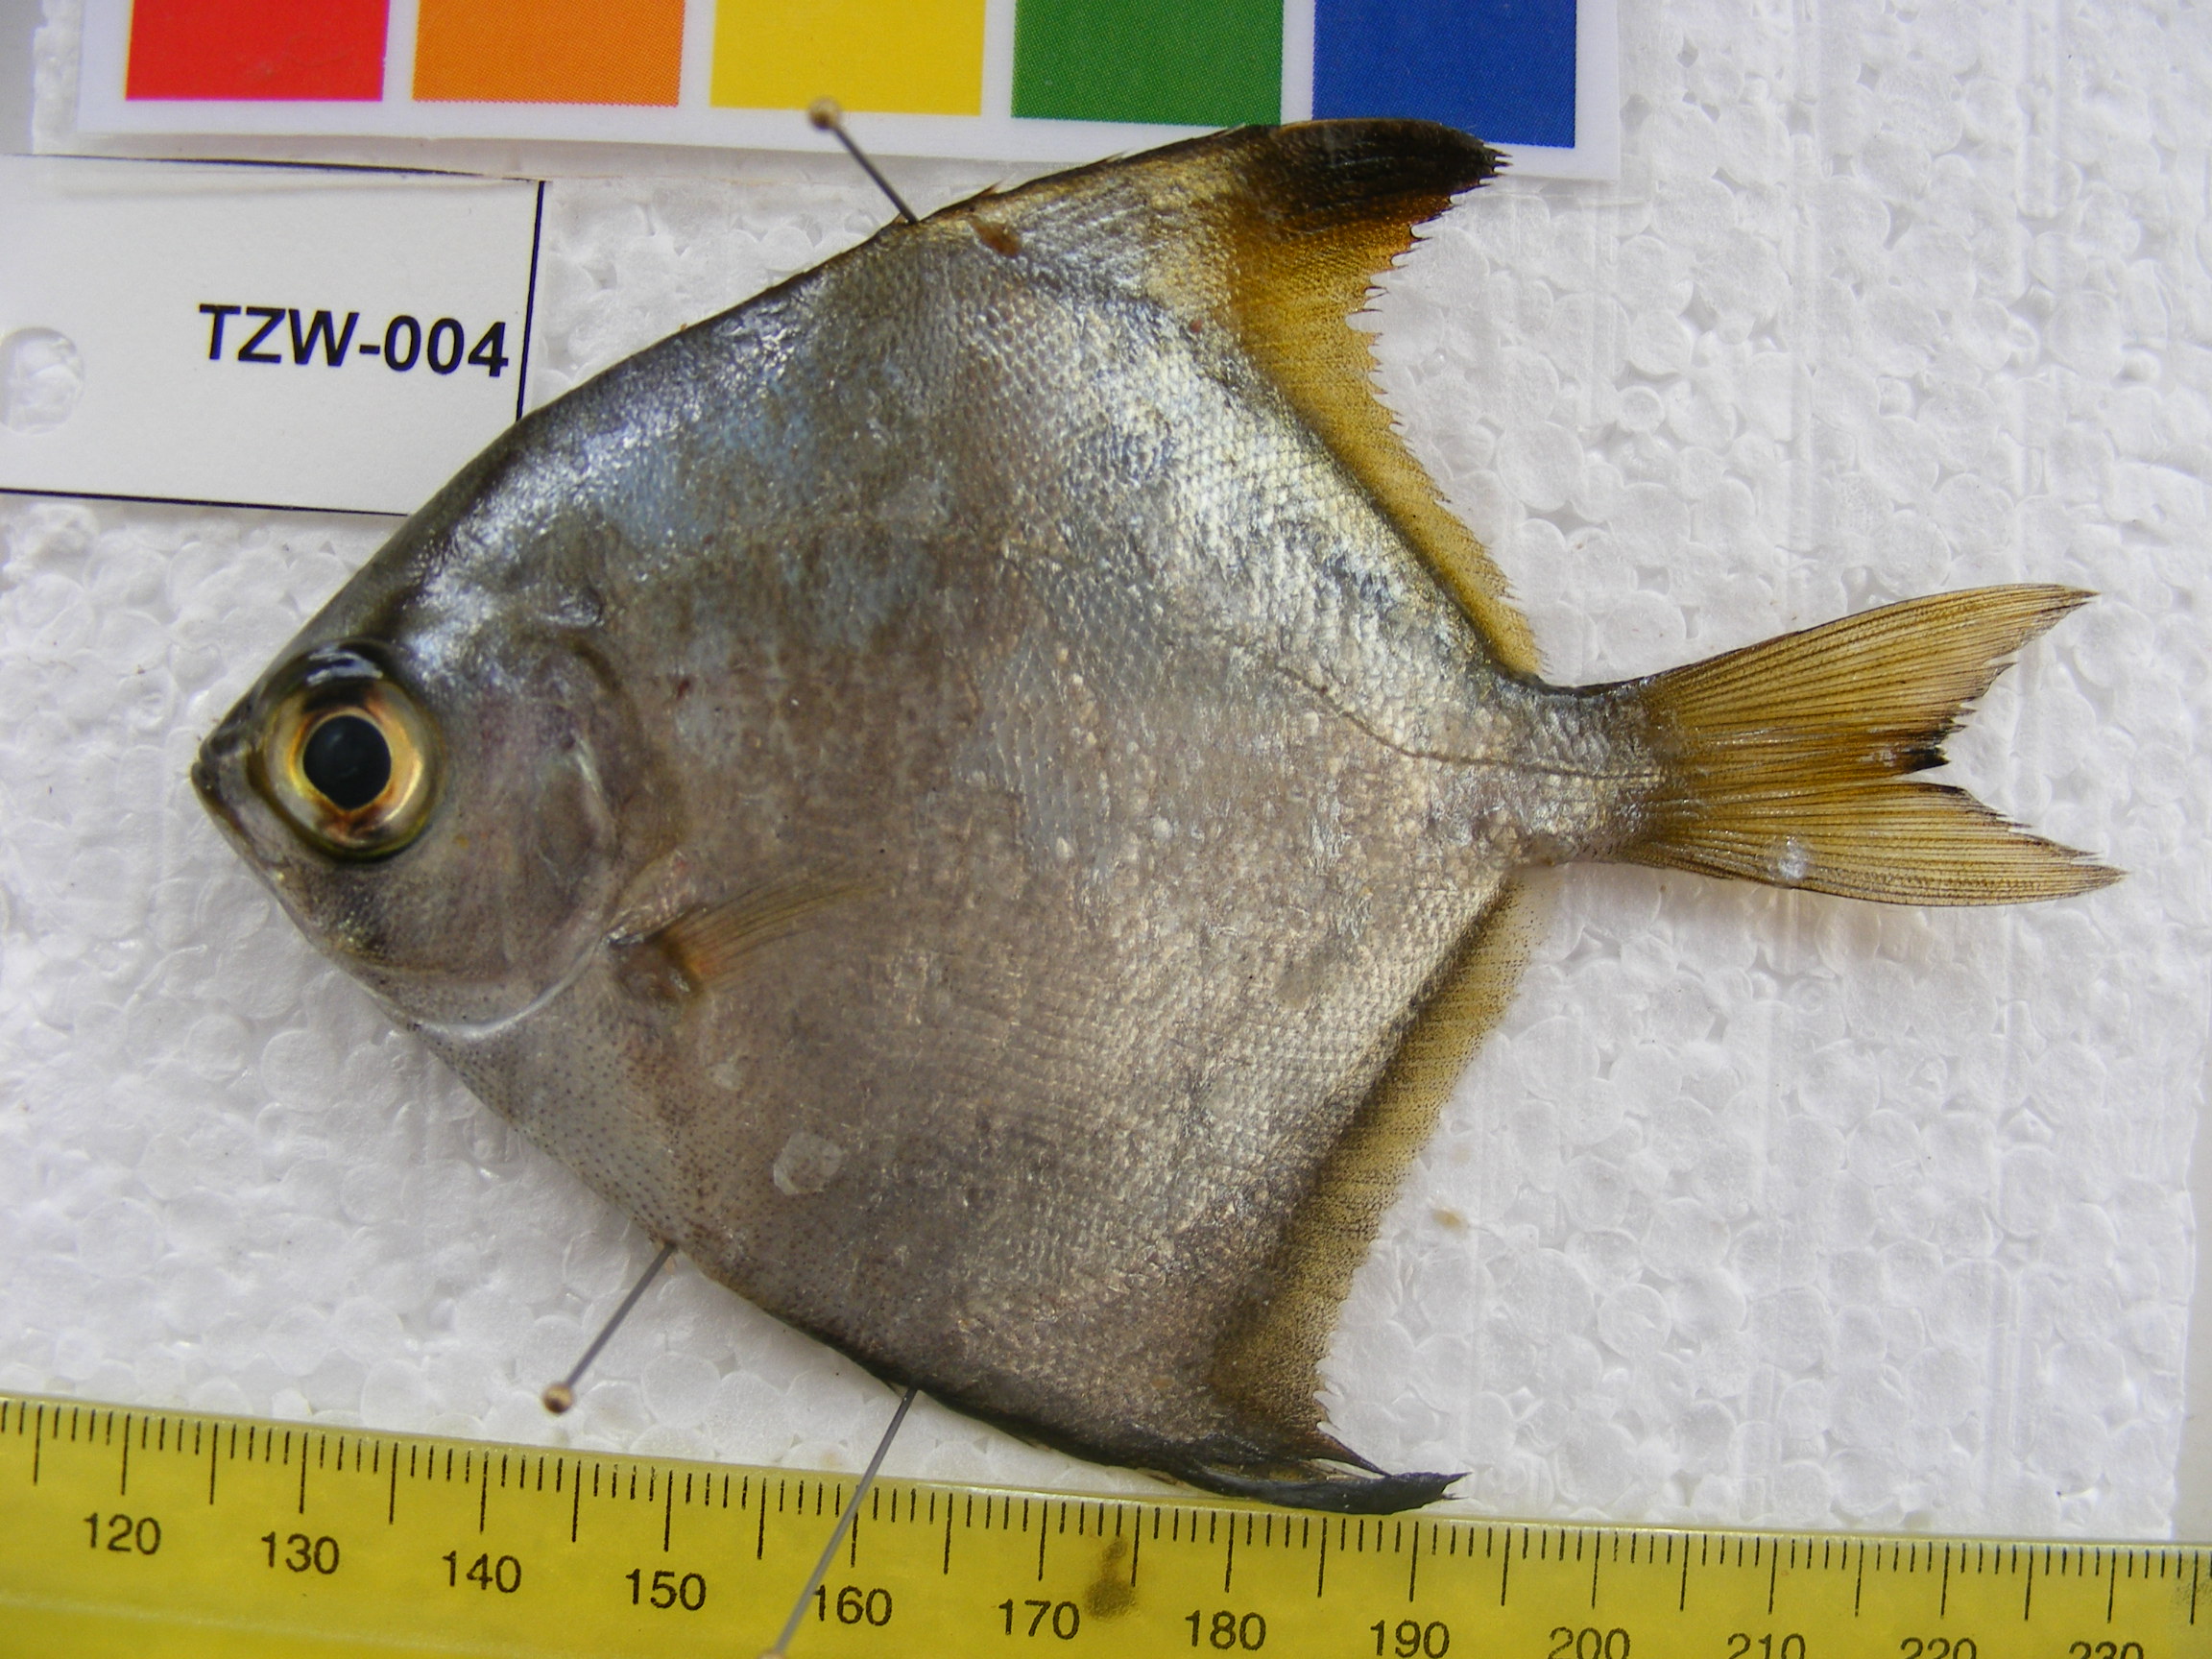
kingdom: Animalia
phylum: Chordata
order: Perciformes
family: Monodactylidae
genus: Monodactylus
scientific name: Monodactylus argenteus
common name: Silver moony
